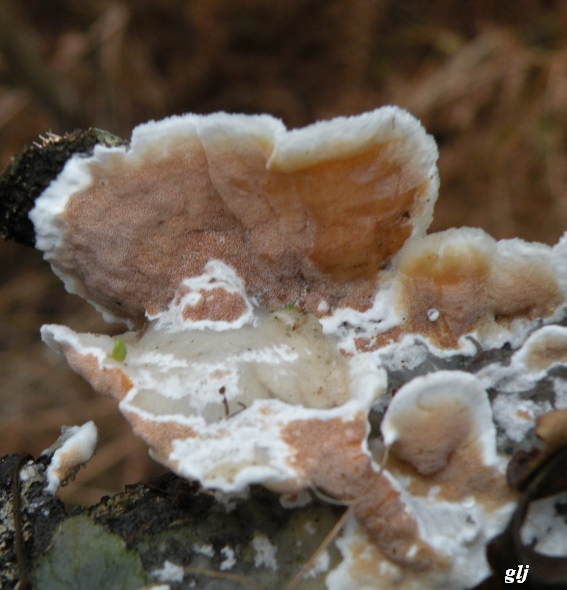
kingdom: Fungi
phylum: Basidiomycota
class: Agaricomycetes
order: Polyporales
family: Irpicaceae
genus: Vitreoporus
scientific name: Vitreoporus dichrous
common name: tofarvet foldporesvamp
